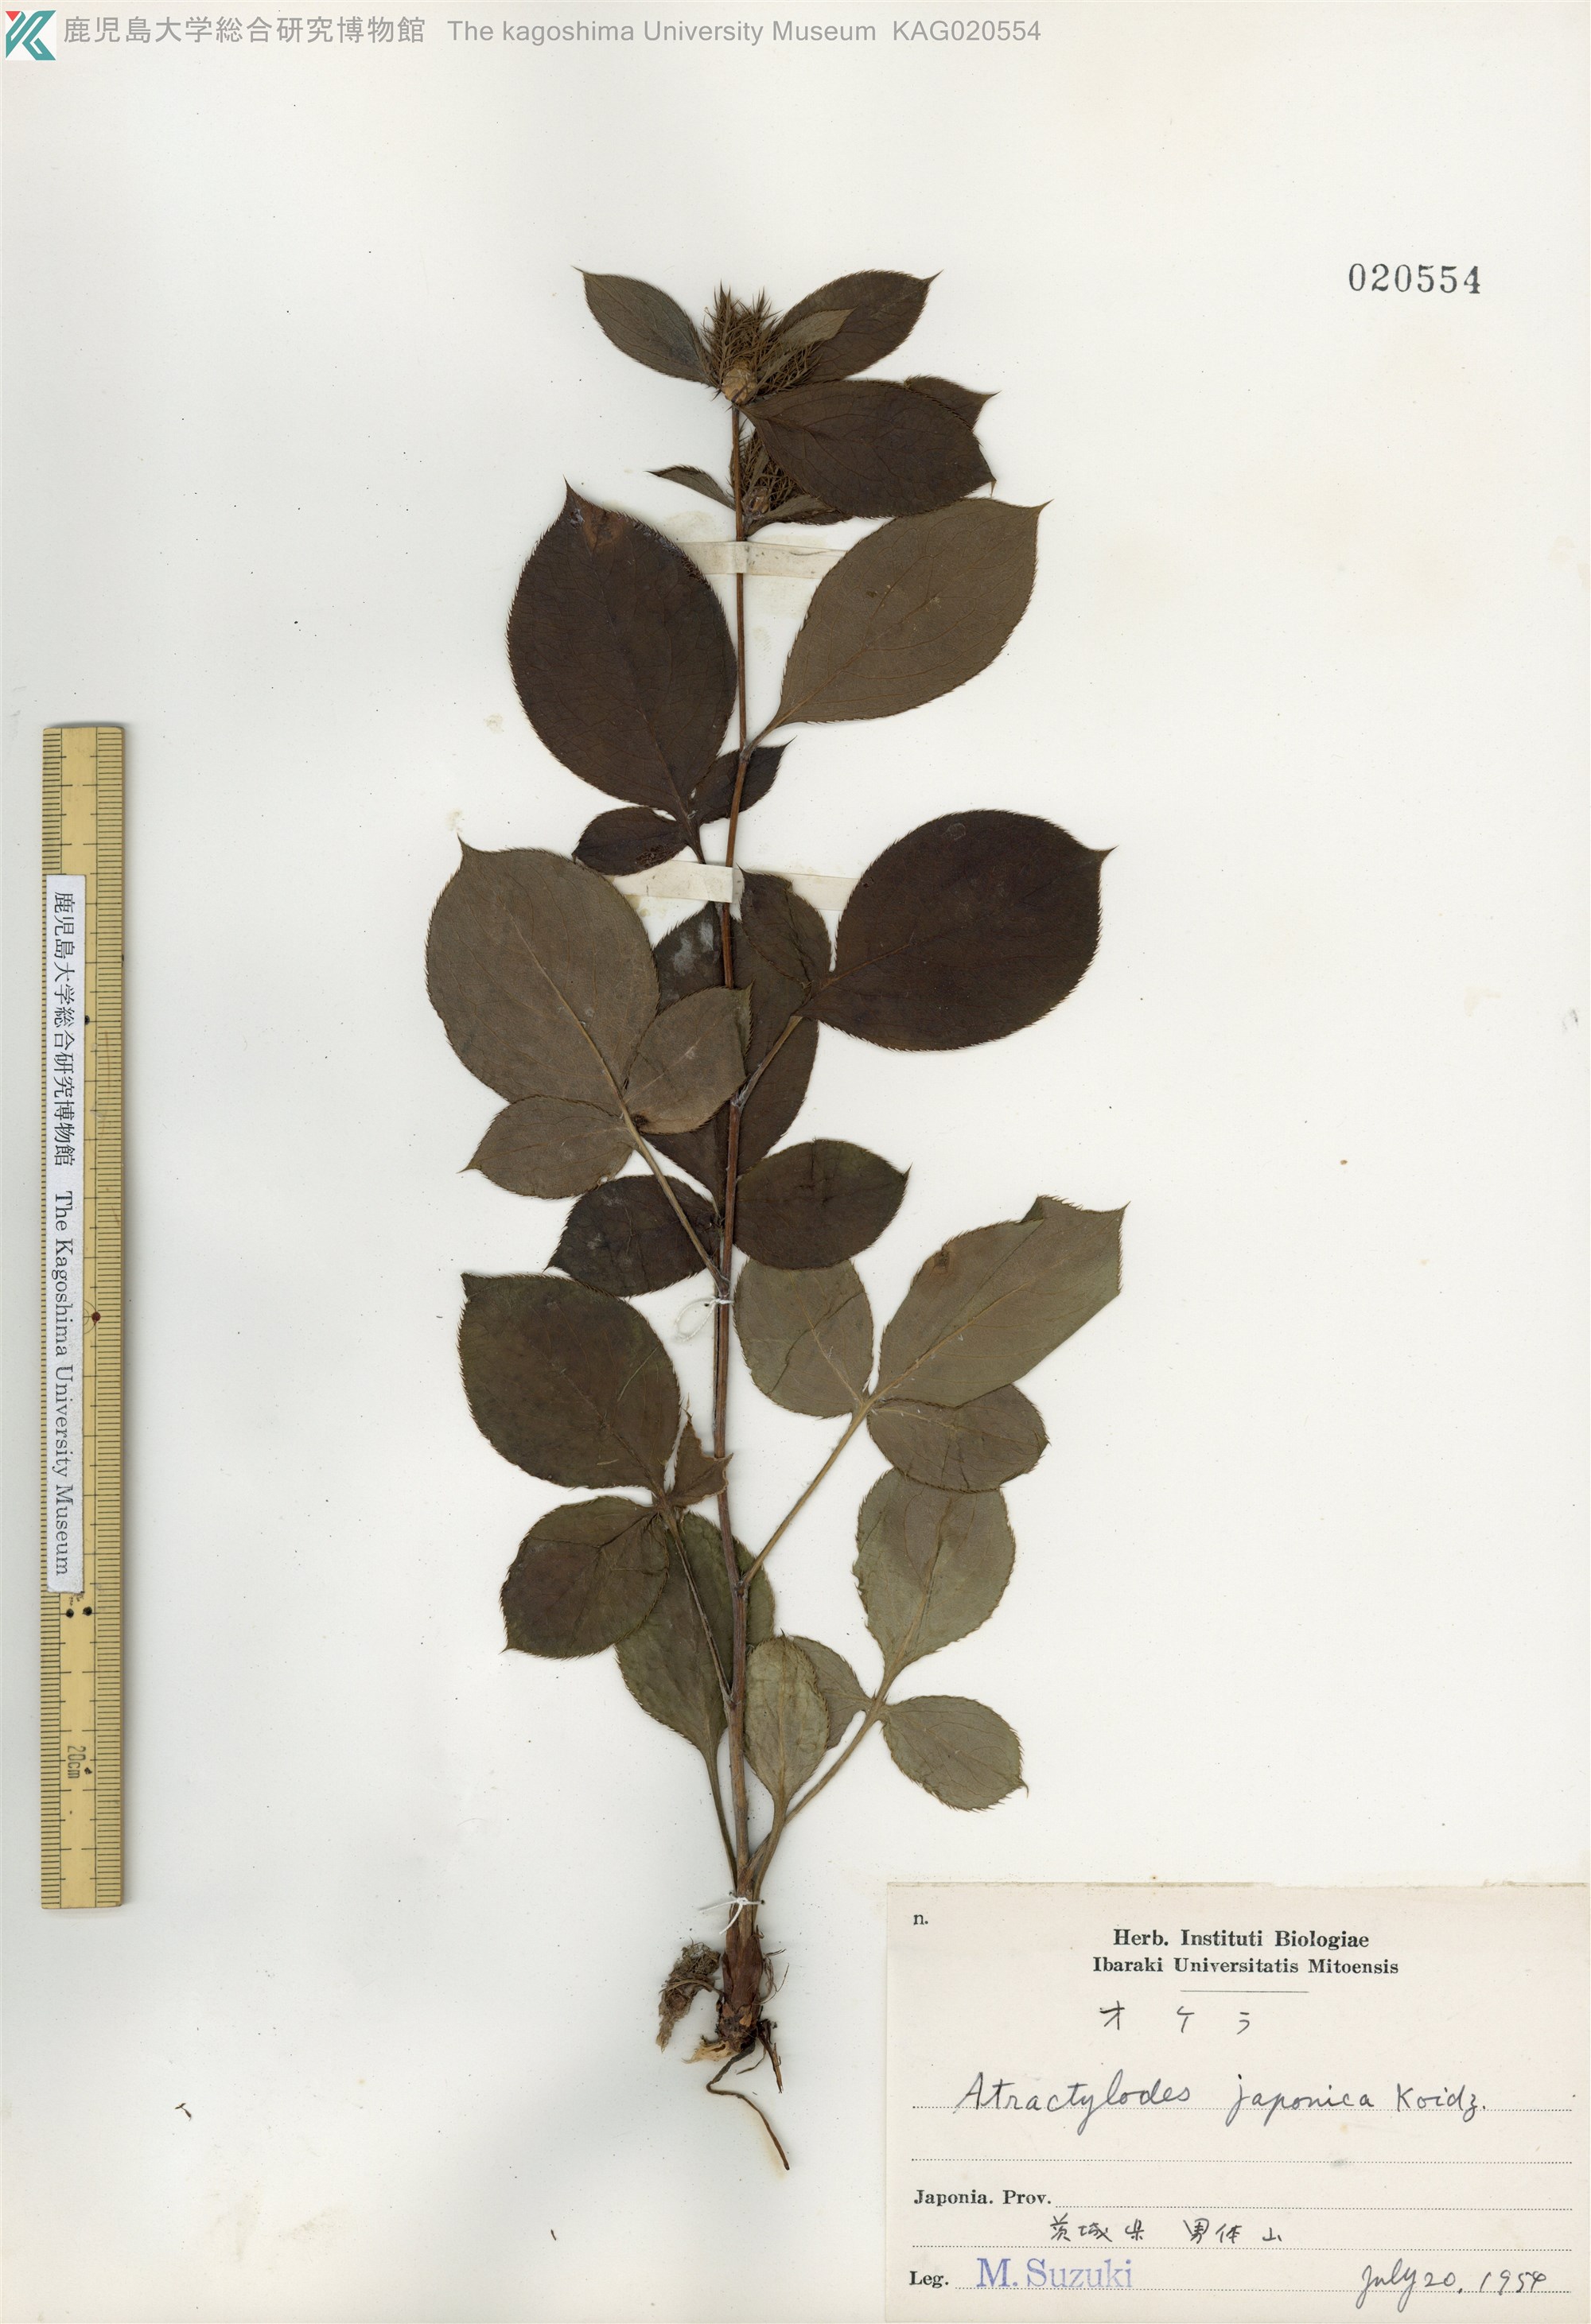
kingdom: Plantae
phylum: Tracheophyta
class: Magnoliopsida
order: Asterales
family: Asteraceae
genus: Atractylodes
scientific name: Atractylodes lancea
